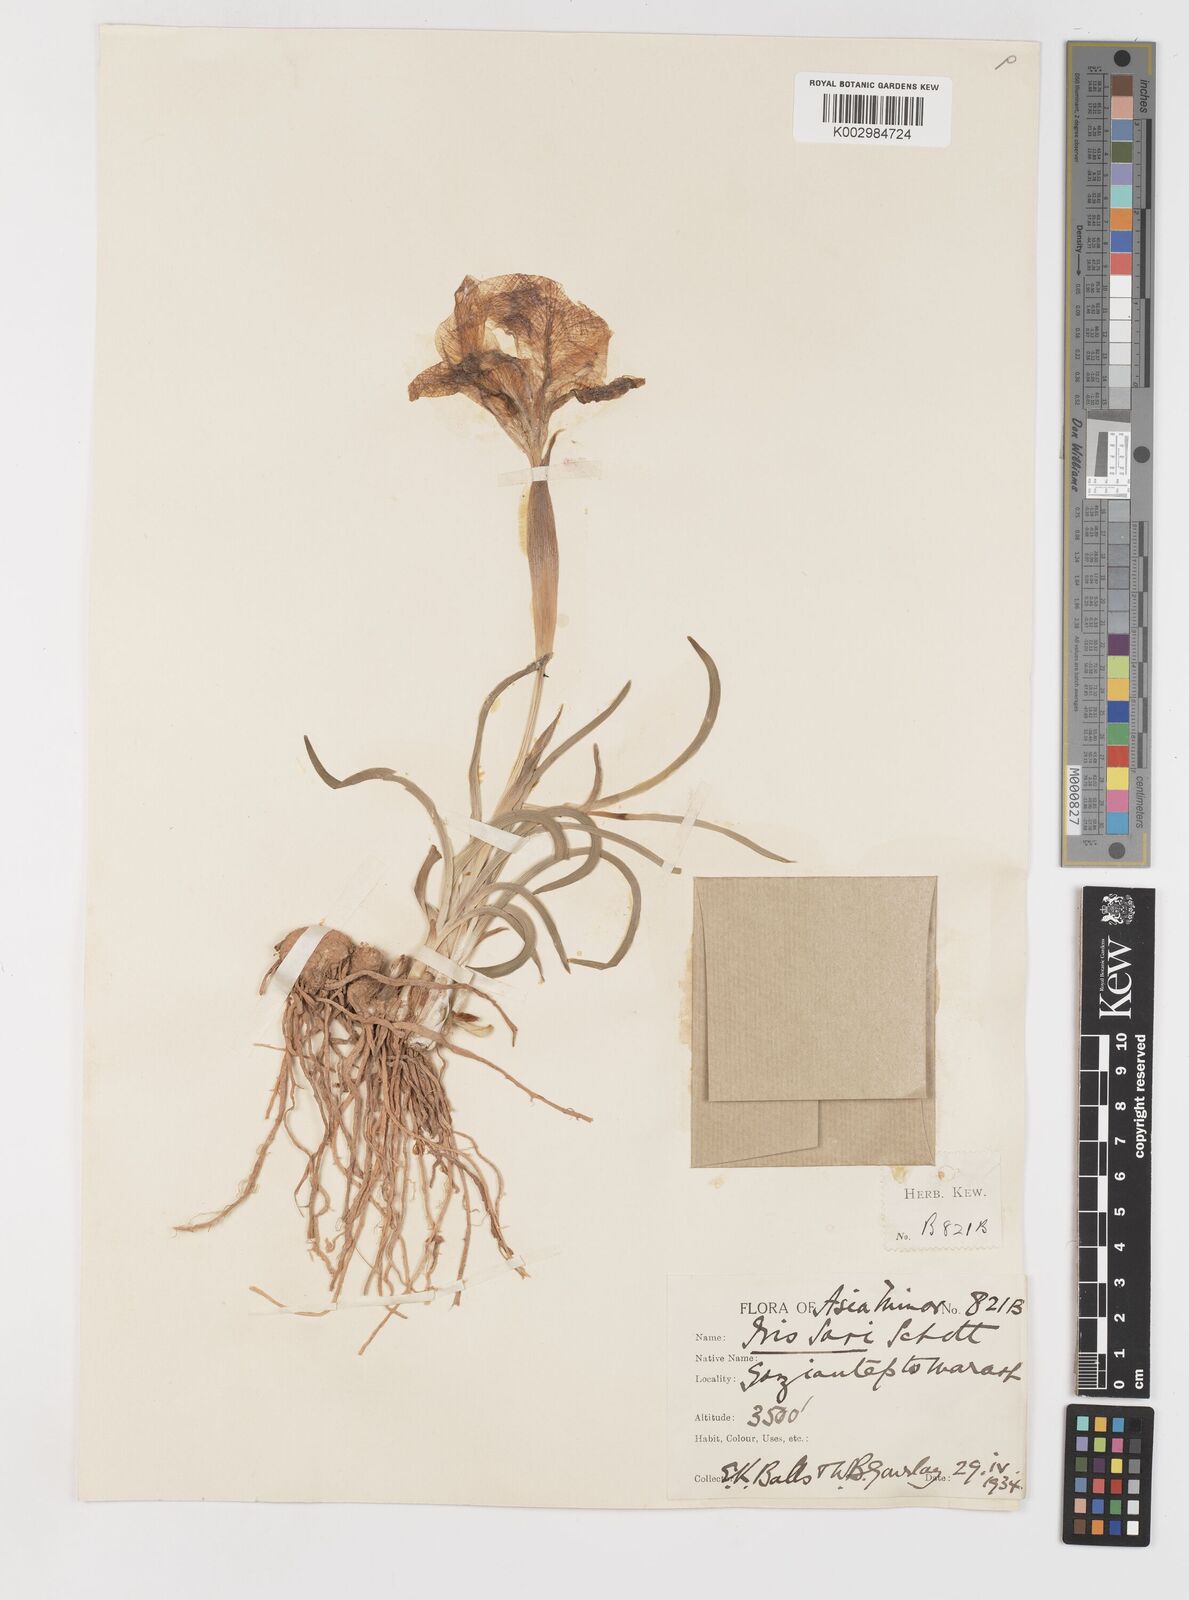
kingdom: Plantae
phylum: Tracheophyta
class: Liliopsida
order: Asparagales
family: Iridaceae
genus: Iris
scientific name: Iris sari
